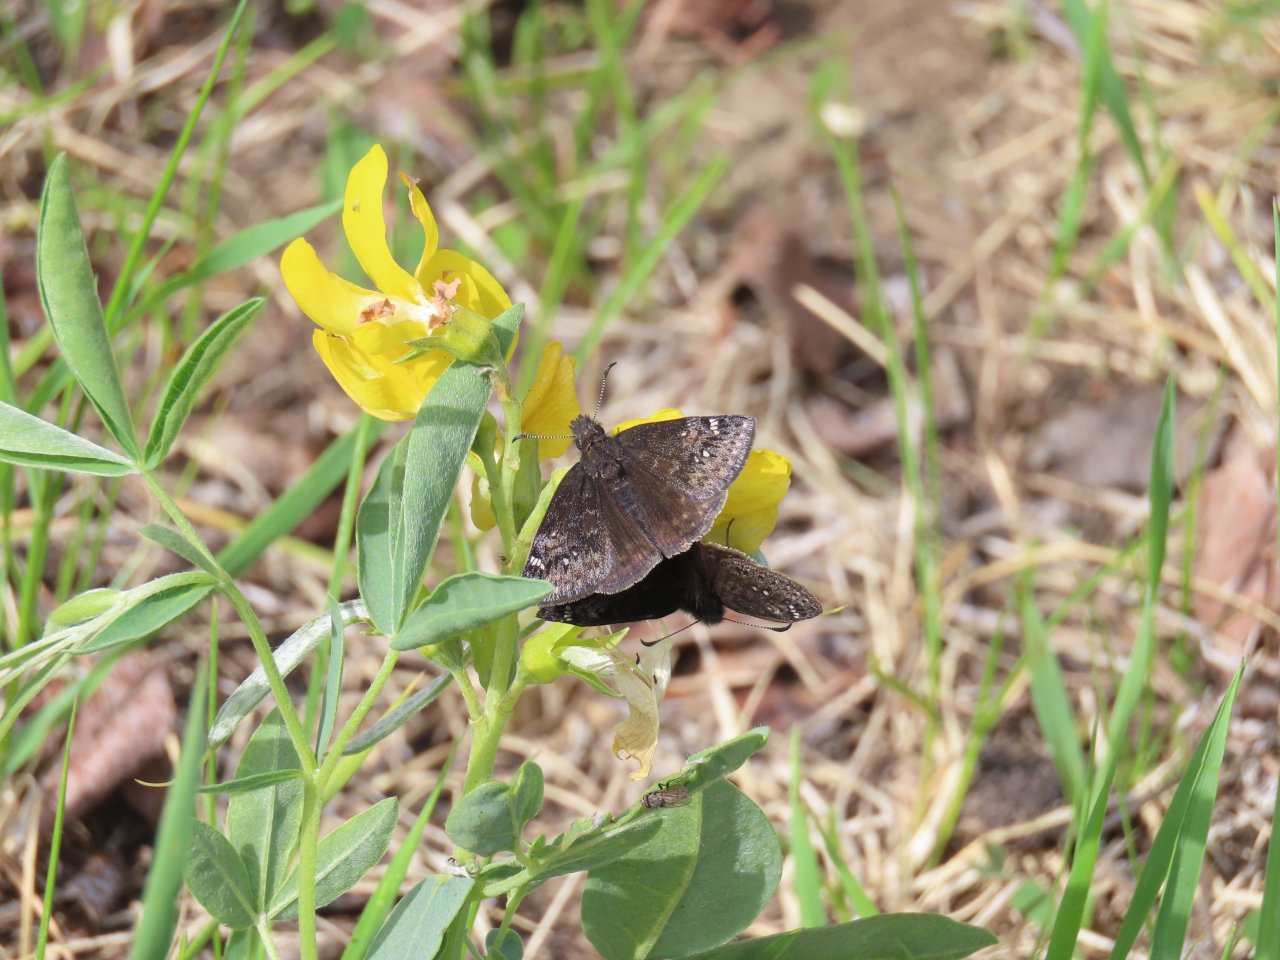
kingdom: Animalia
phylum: Arthropoda
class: Insecta
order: Lepidoptera
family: Hesperiidae
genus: Gesta
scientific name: Gesta
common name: Persius Duskywing
